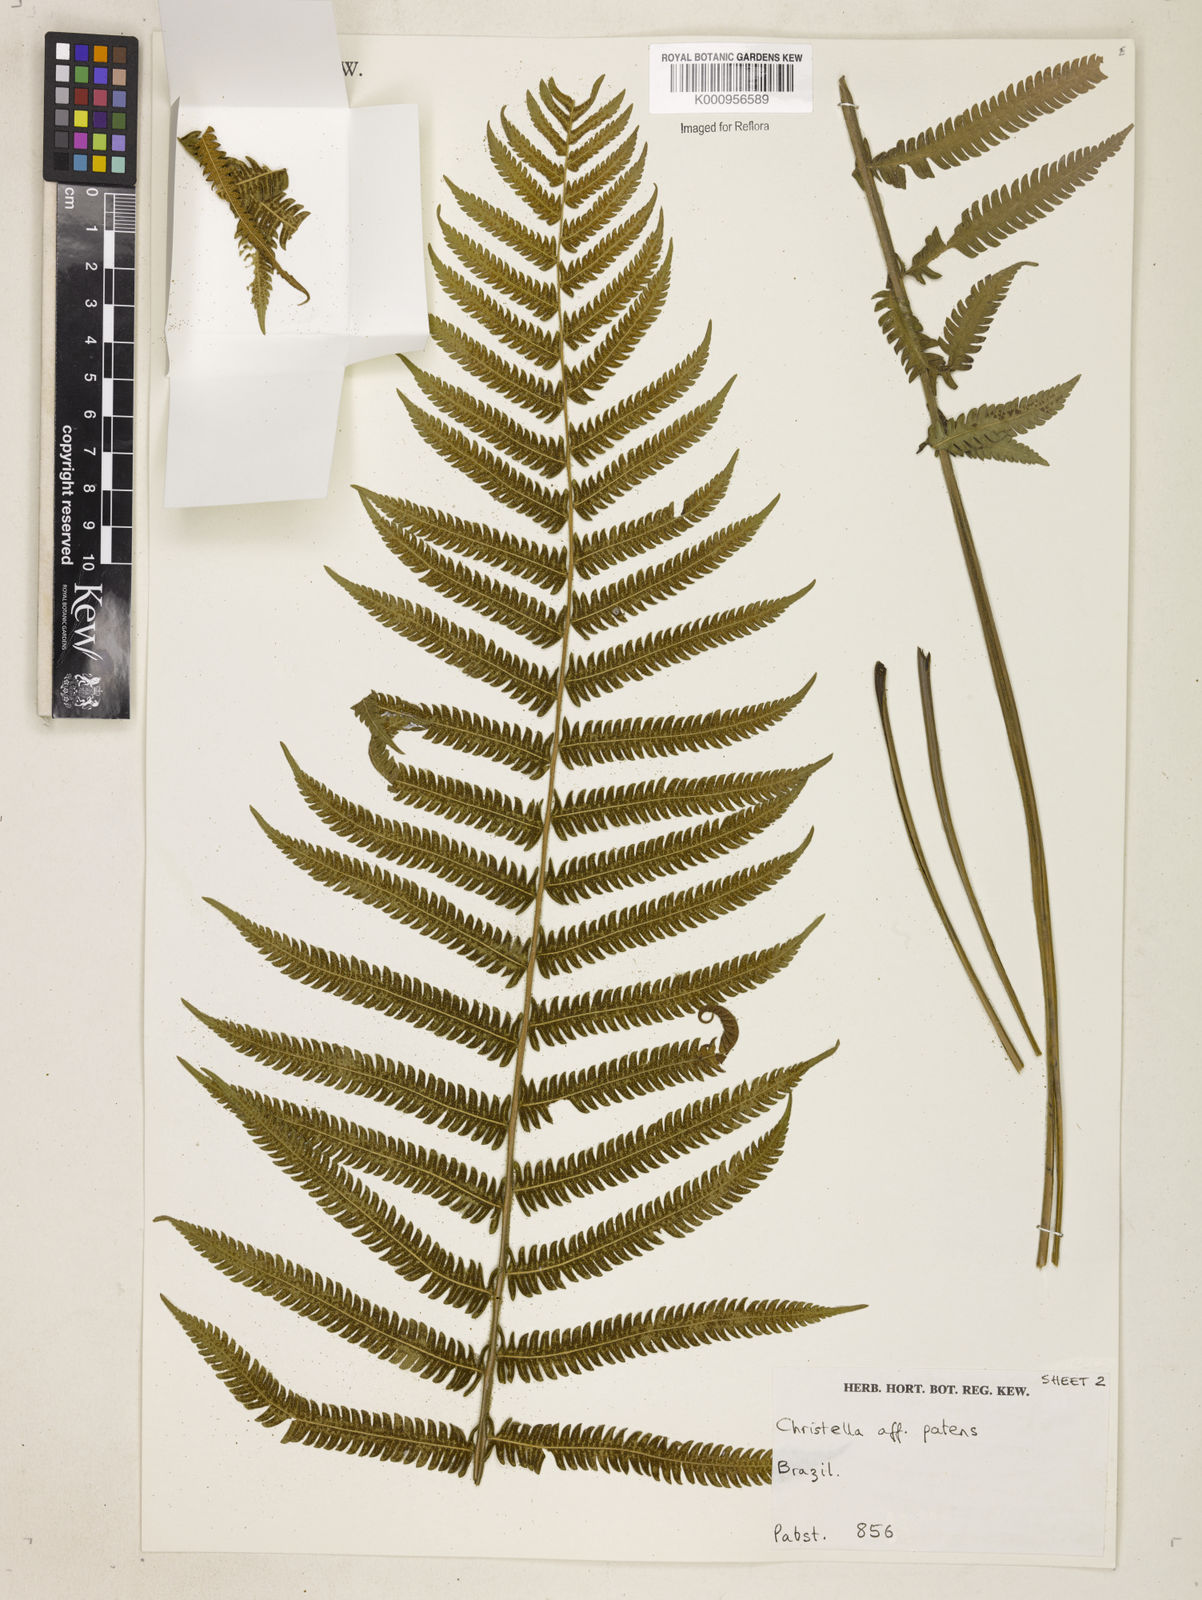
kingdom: Plantae
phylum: Tracheophyta
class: Polypodiopsida
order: Polypodiales
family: Thelypteridaceae
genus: Pelazoneuron
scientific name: Pelazoneuron patens
